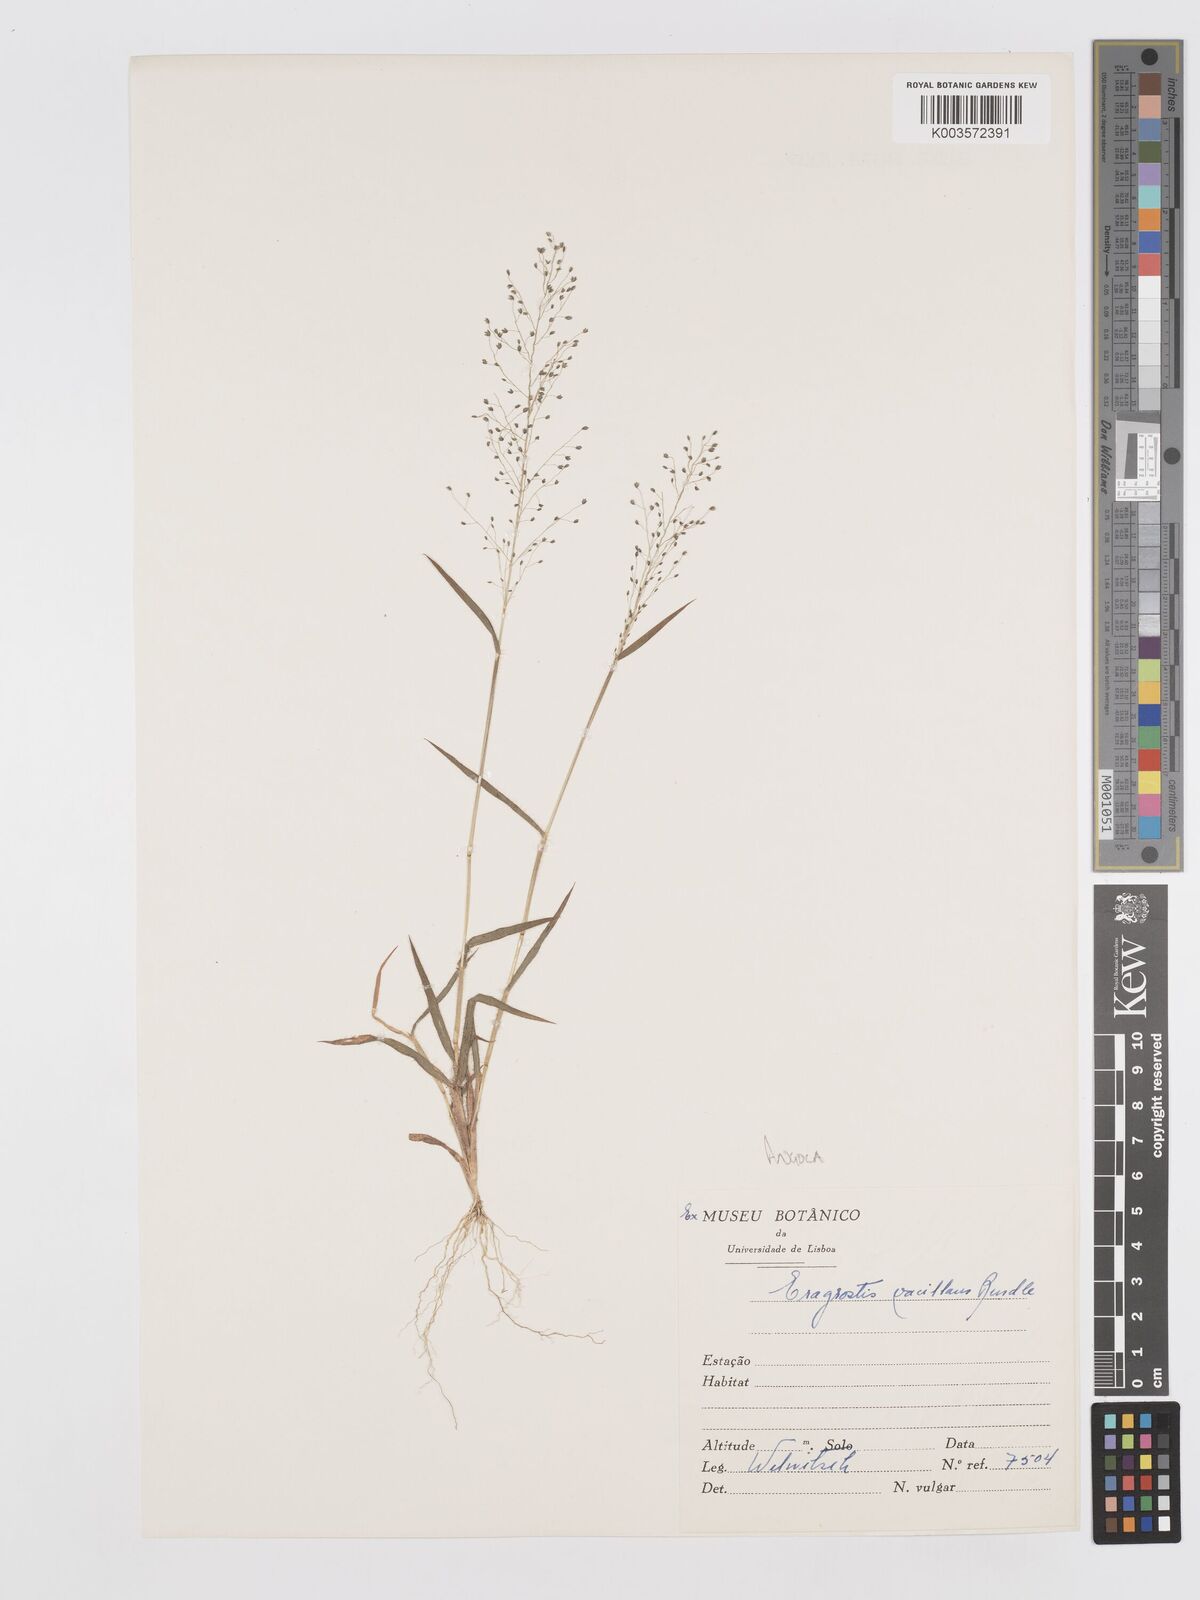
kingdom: Plantae
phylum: Tracheophyta
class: Liliopsida
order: Poales
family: Poaceae
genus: Eragrostis
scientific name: Eragrostis venustula
